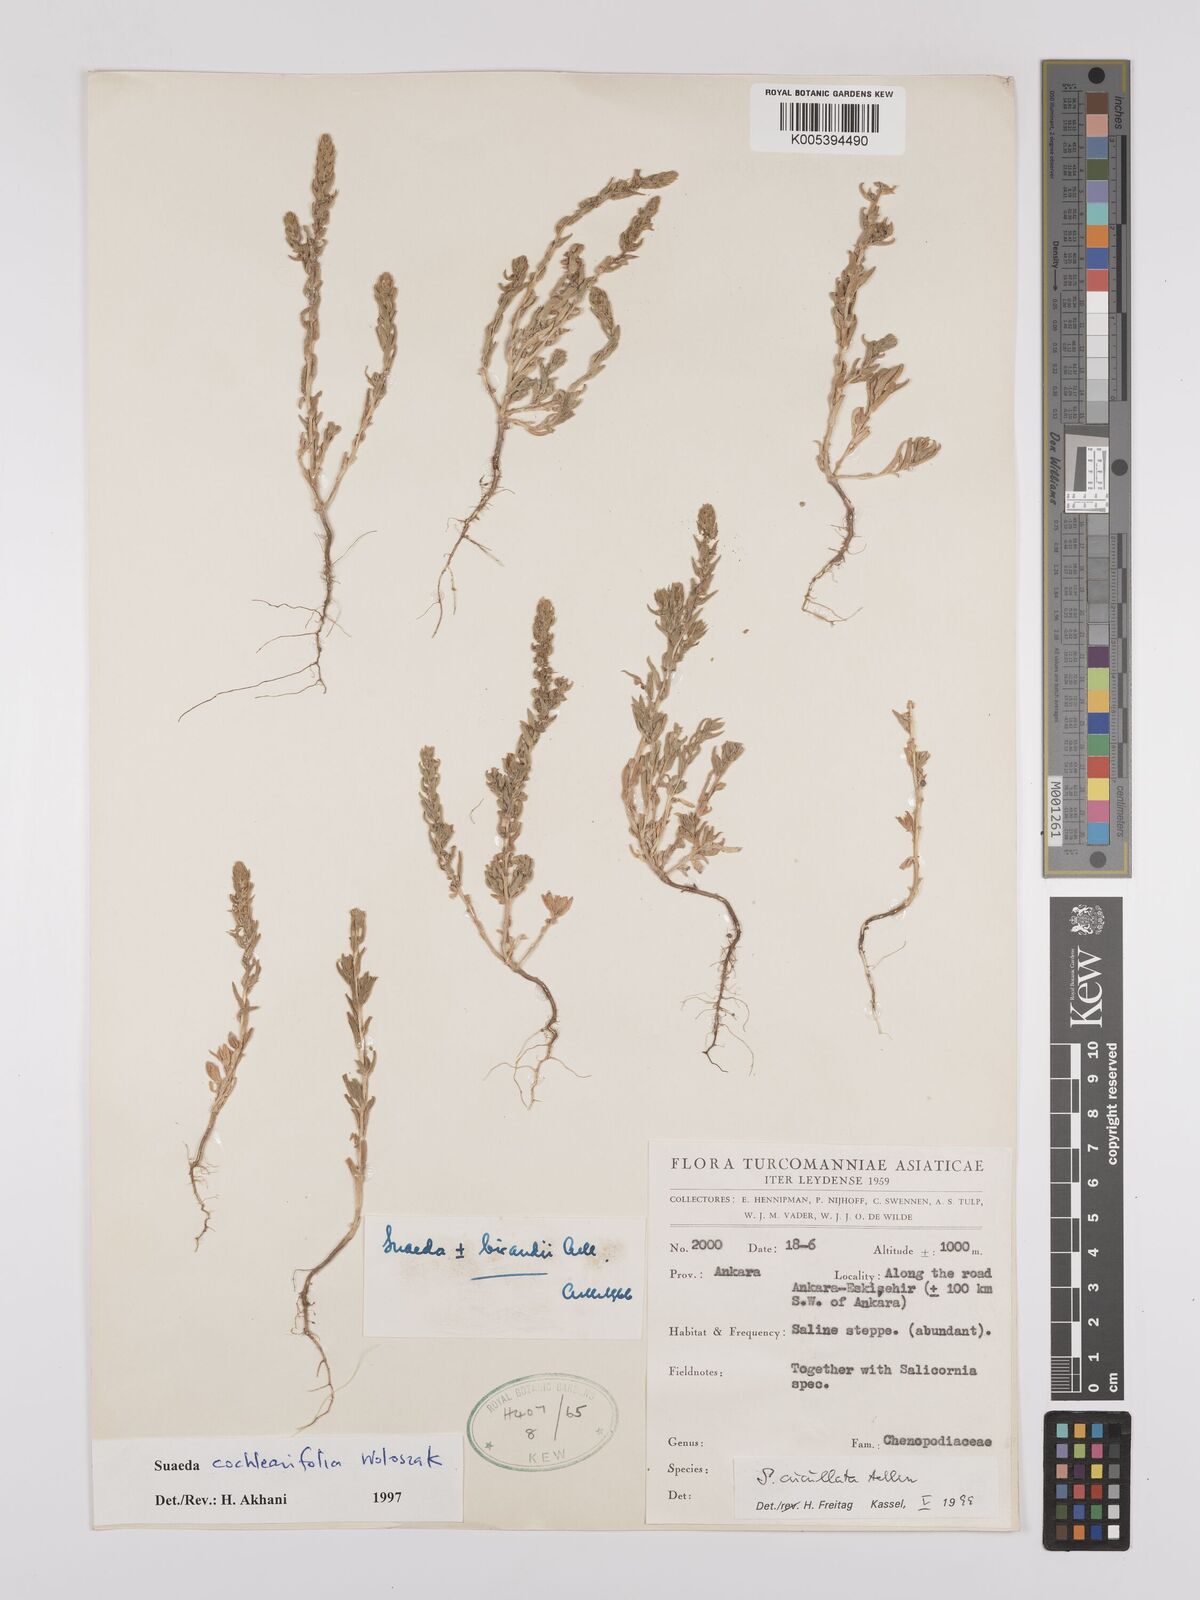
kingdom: Plantae
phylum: Tracheophyta
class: Magnoliopsida
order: Caryophyllales
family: Amaranthaceae
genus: Suaeda
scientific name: Suaeda cucullata
